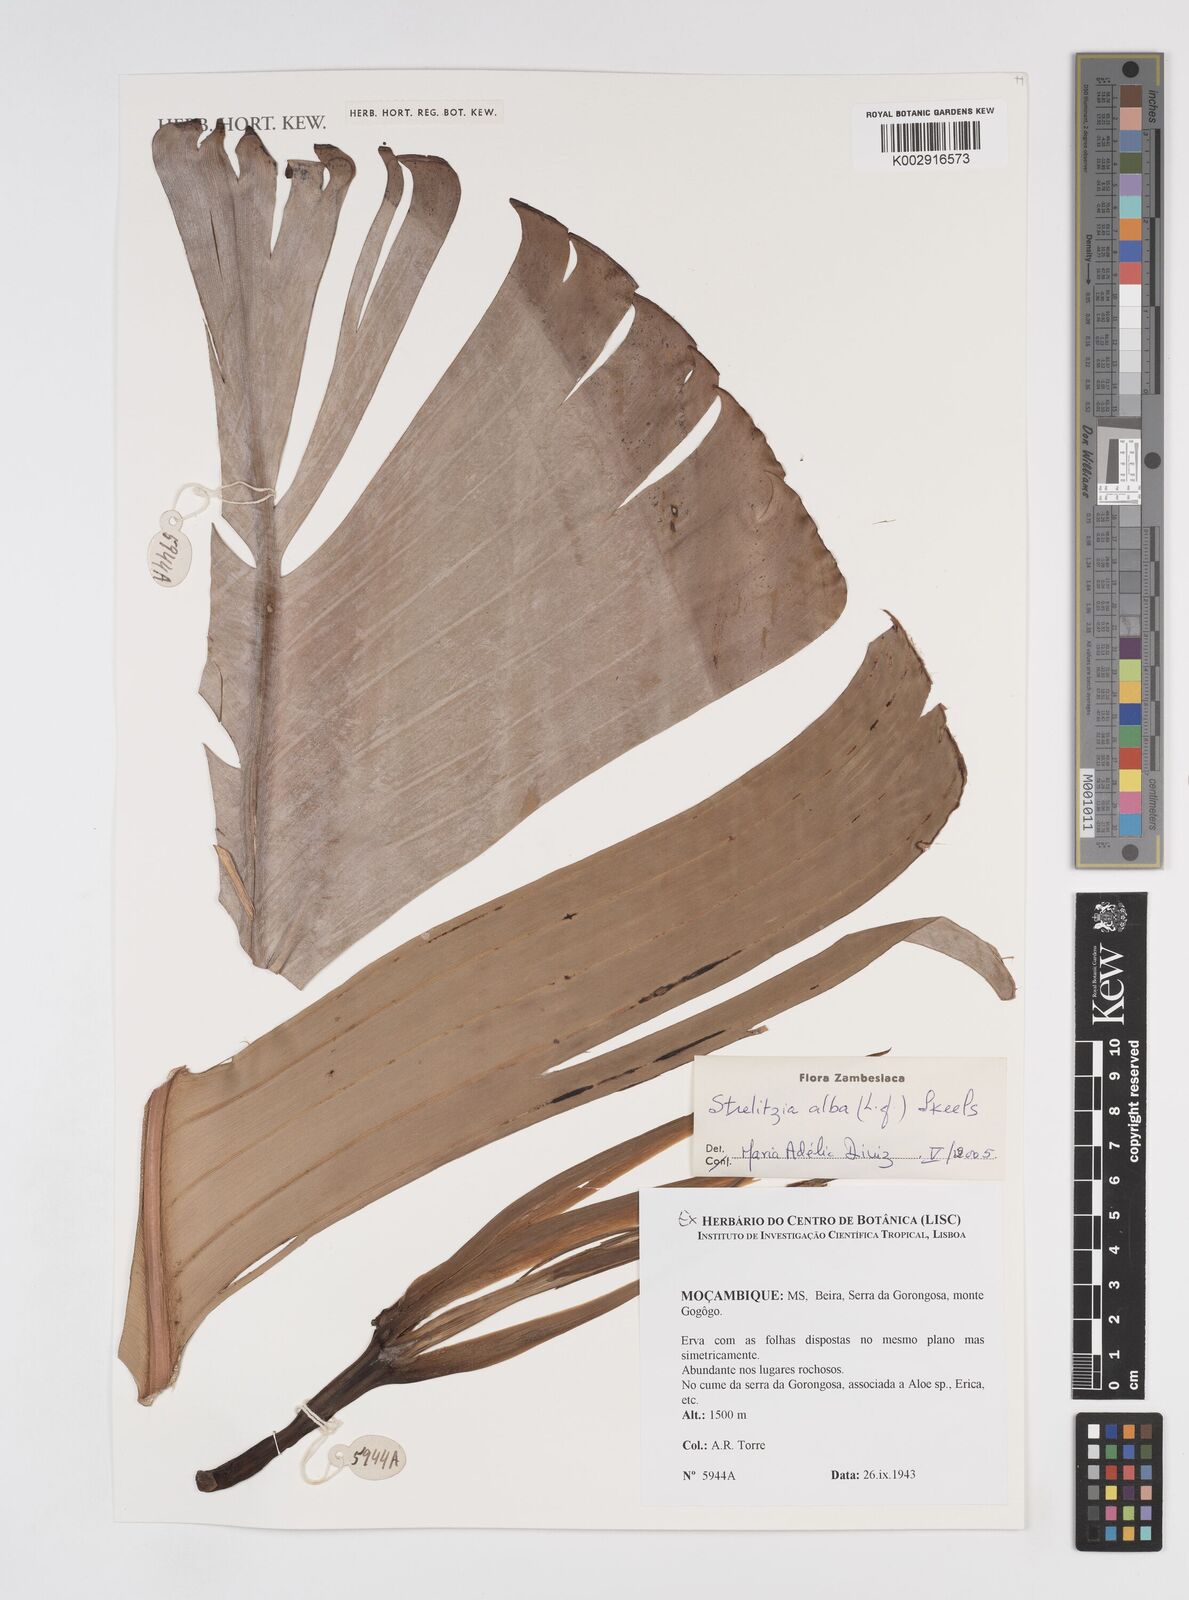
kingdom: Plantae
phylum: Tracheophyta
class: Liliopsida
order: Zingiberales
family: Strelitziaceae
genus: Strelitzia
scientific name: Strelitzia alba
